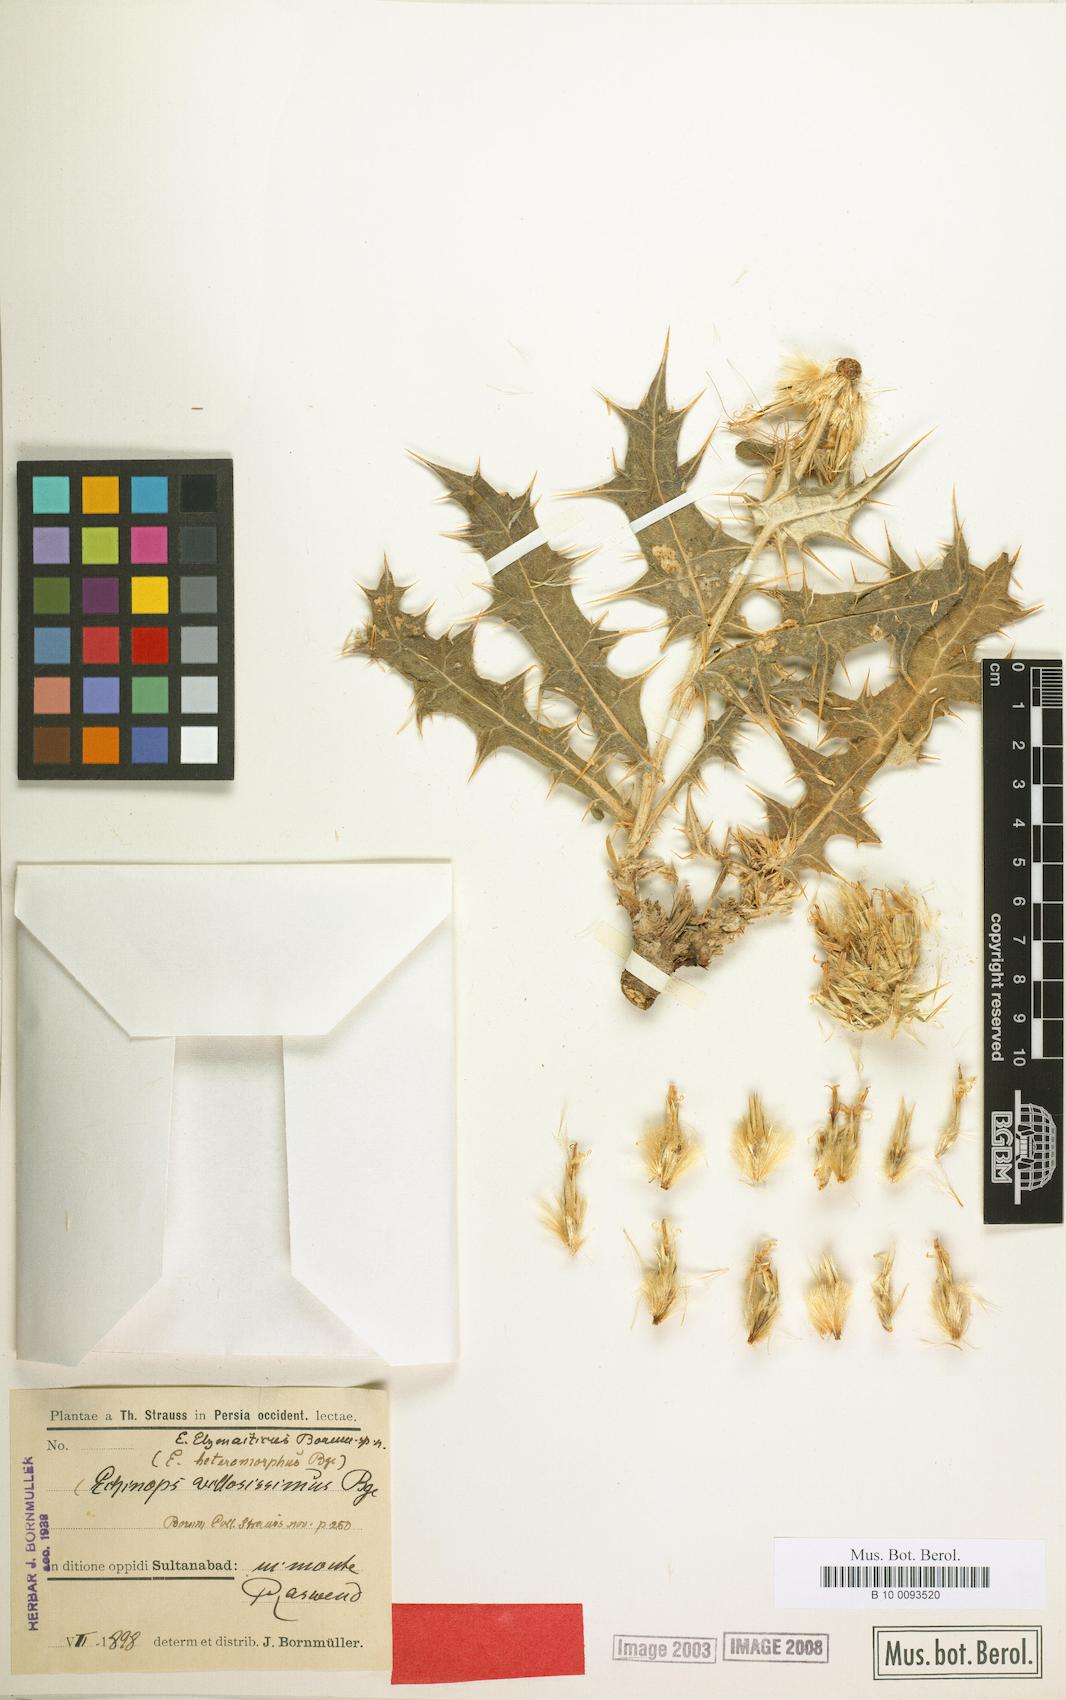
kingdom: Plantae
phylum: Tracheophyta
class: Magnoliopsida
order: Asterales
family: Asteraceae
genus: Echinops
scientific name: Echinops elymaiticus
